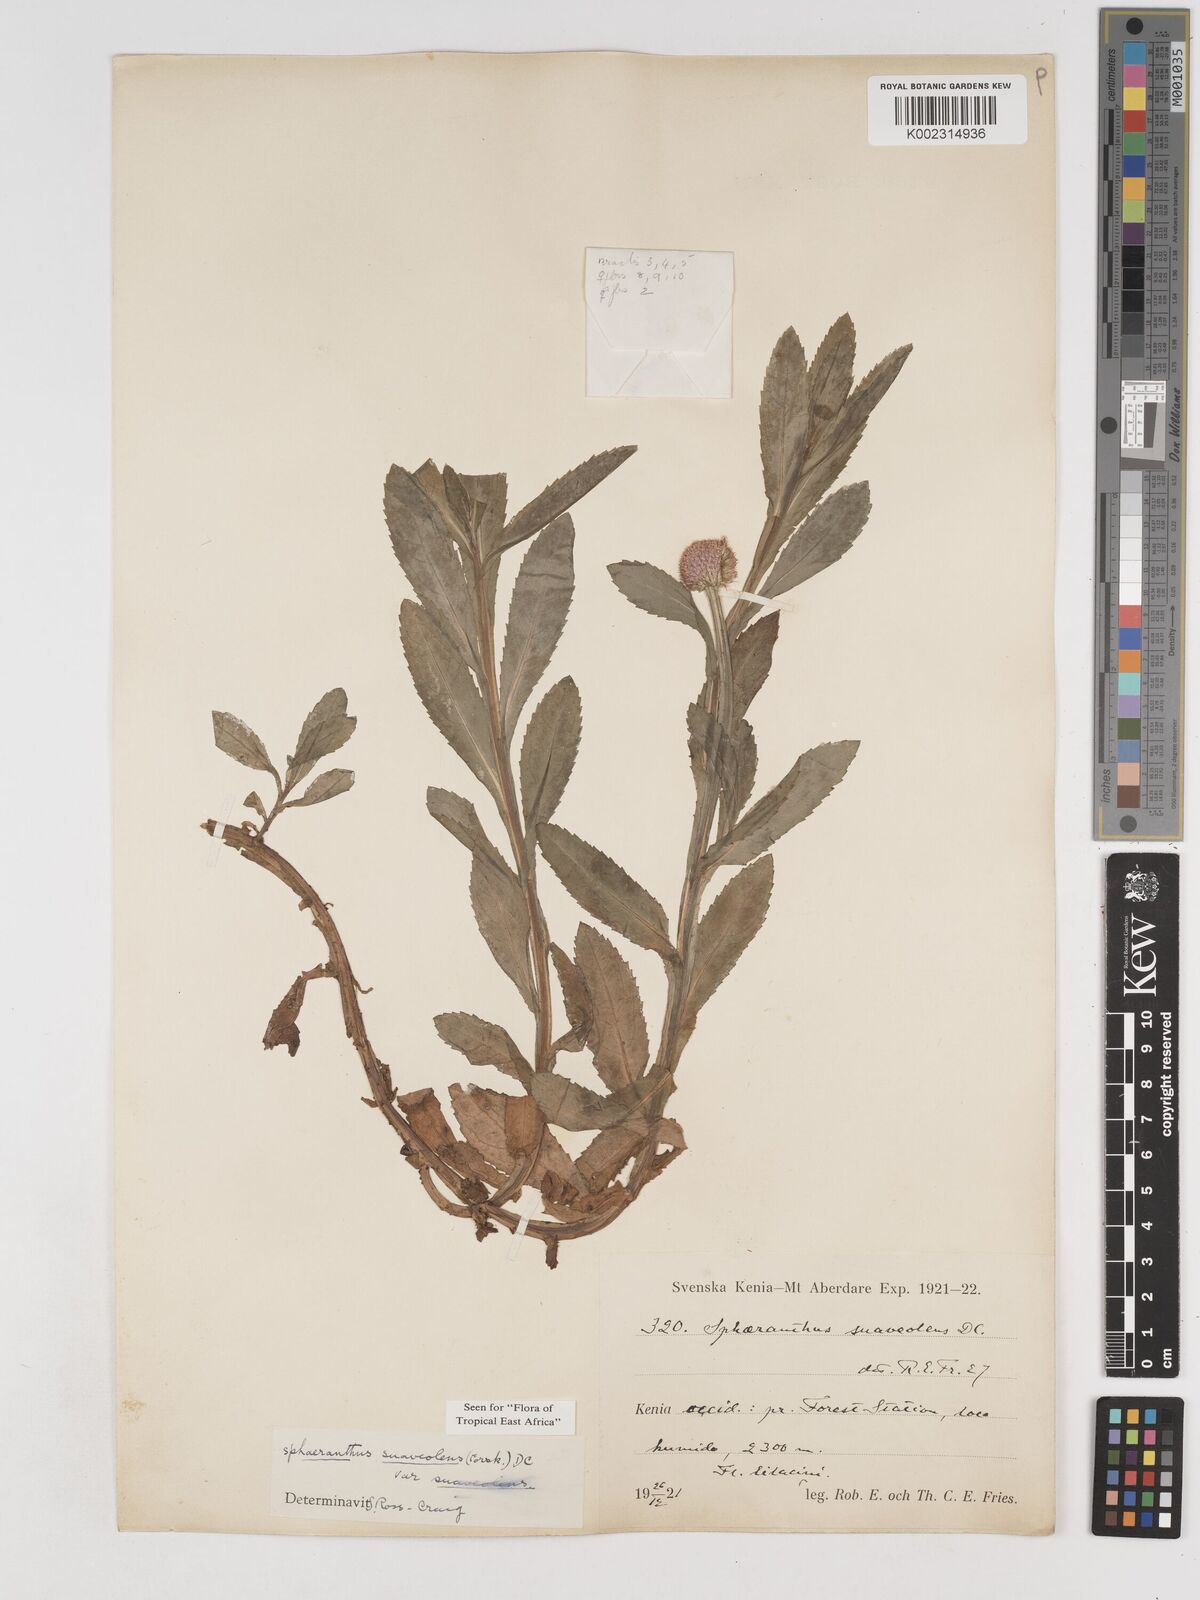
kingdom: Plantae
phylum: Tracheophyta
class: Magnoliopsida
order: Asterales
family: Asteraceae
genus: Sphaeranthus
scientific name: Sphaeranthus suaveolens
